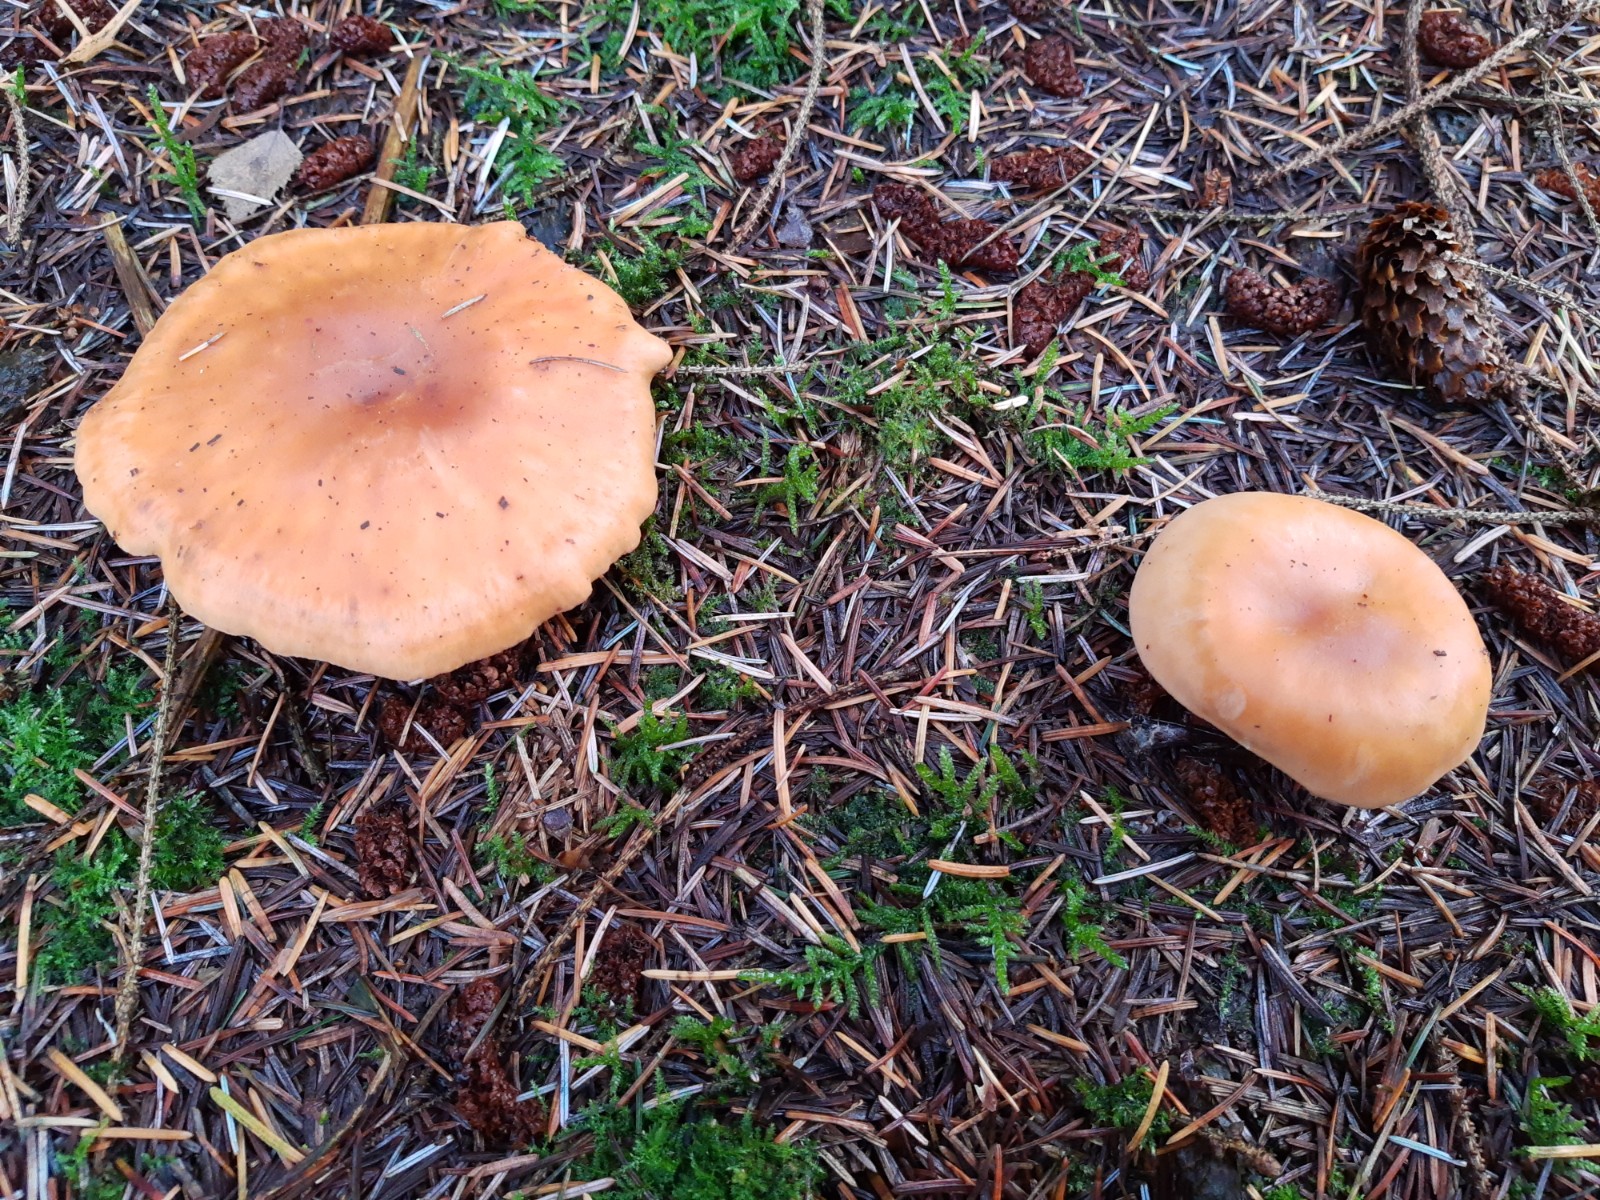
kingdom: Fungi
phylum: Basidiomycota
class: Agaricomycetes
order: Agaricales
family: Tricholomataceae
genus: Paralepista
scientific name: Paralepista flaccida
